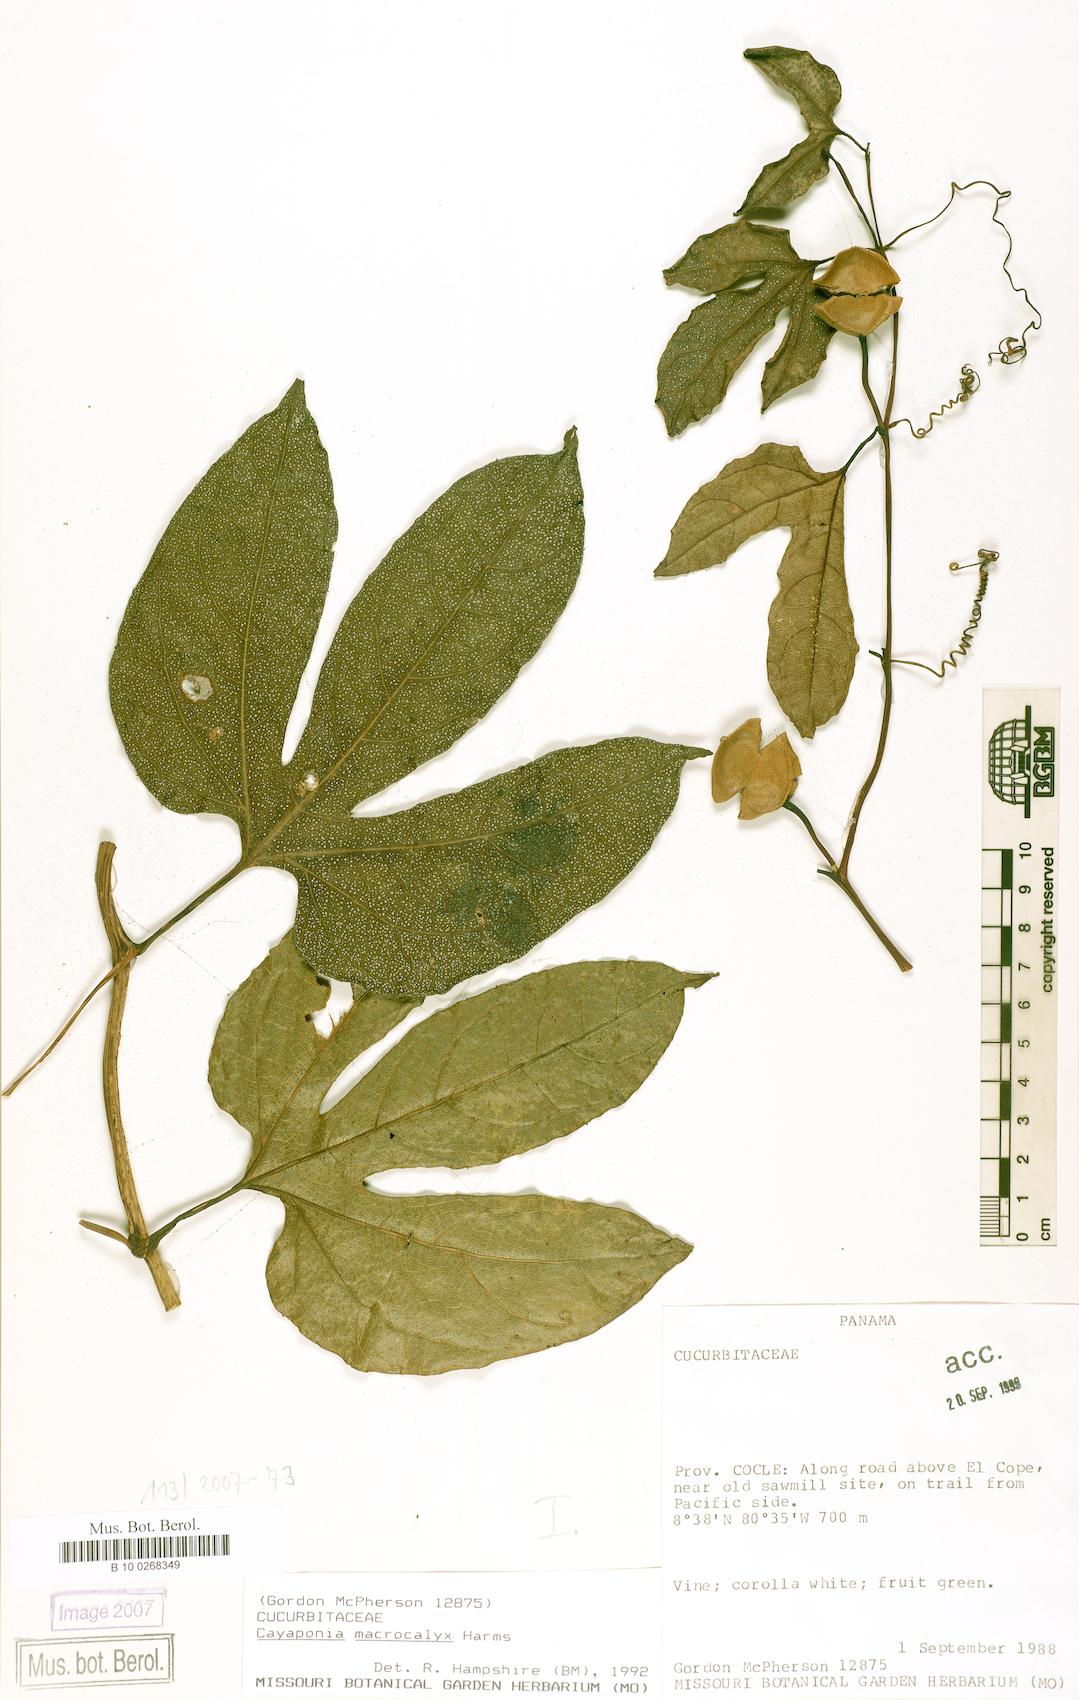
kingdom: Plantae
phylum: Tracheophyta
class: Magnoliopsida
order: Cucurbitales
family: Cucurbitaceae
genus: Cayaponia
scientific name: Cayaponia macrocalyx
